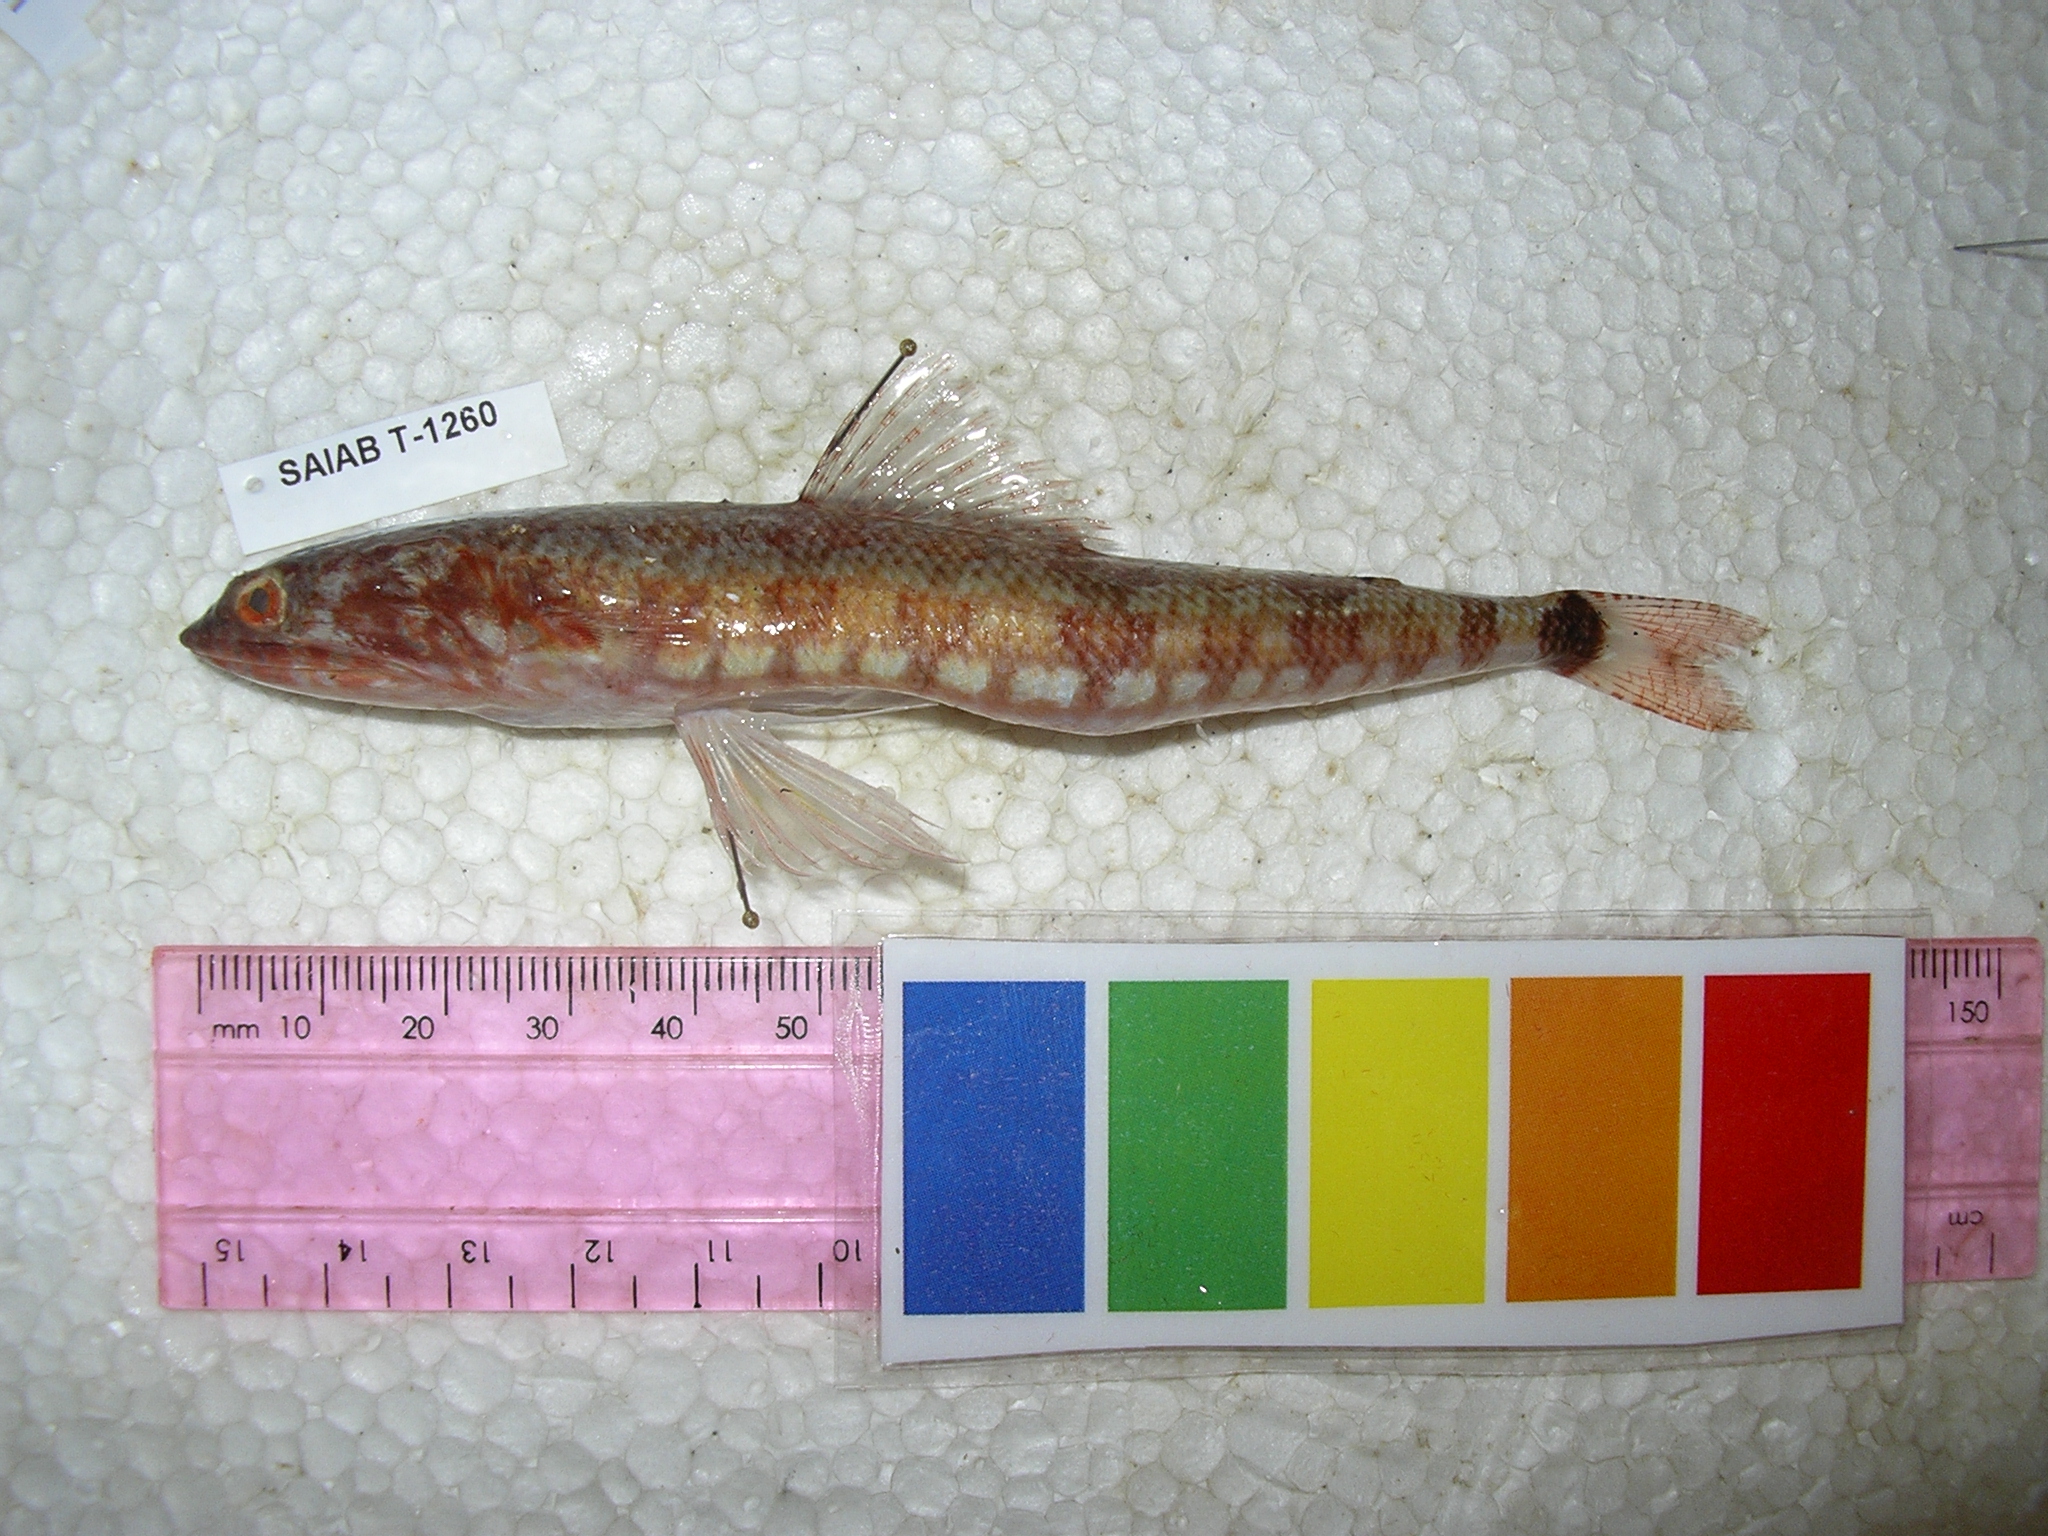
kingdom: Animalia
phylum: Chordata
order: Aulopiformes
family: Synodontidae
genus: Synodus
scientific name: Synodus jaculum
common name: Lighthouse lizardfish
